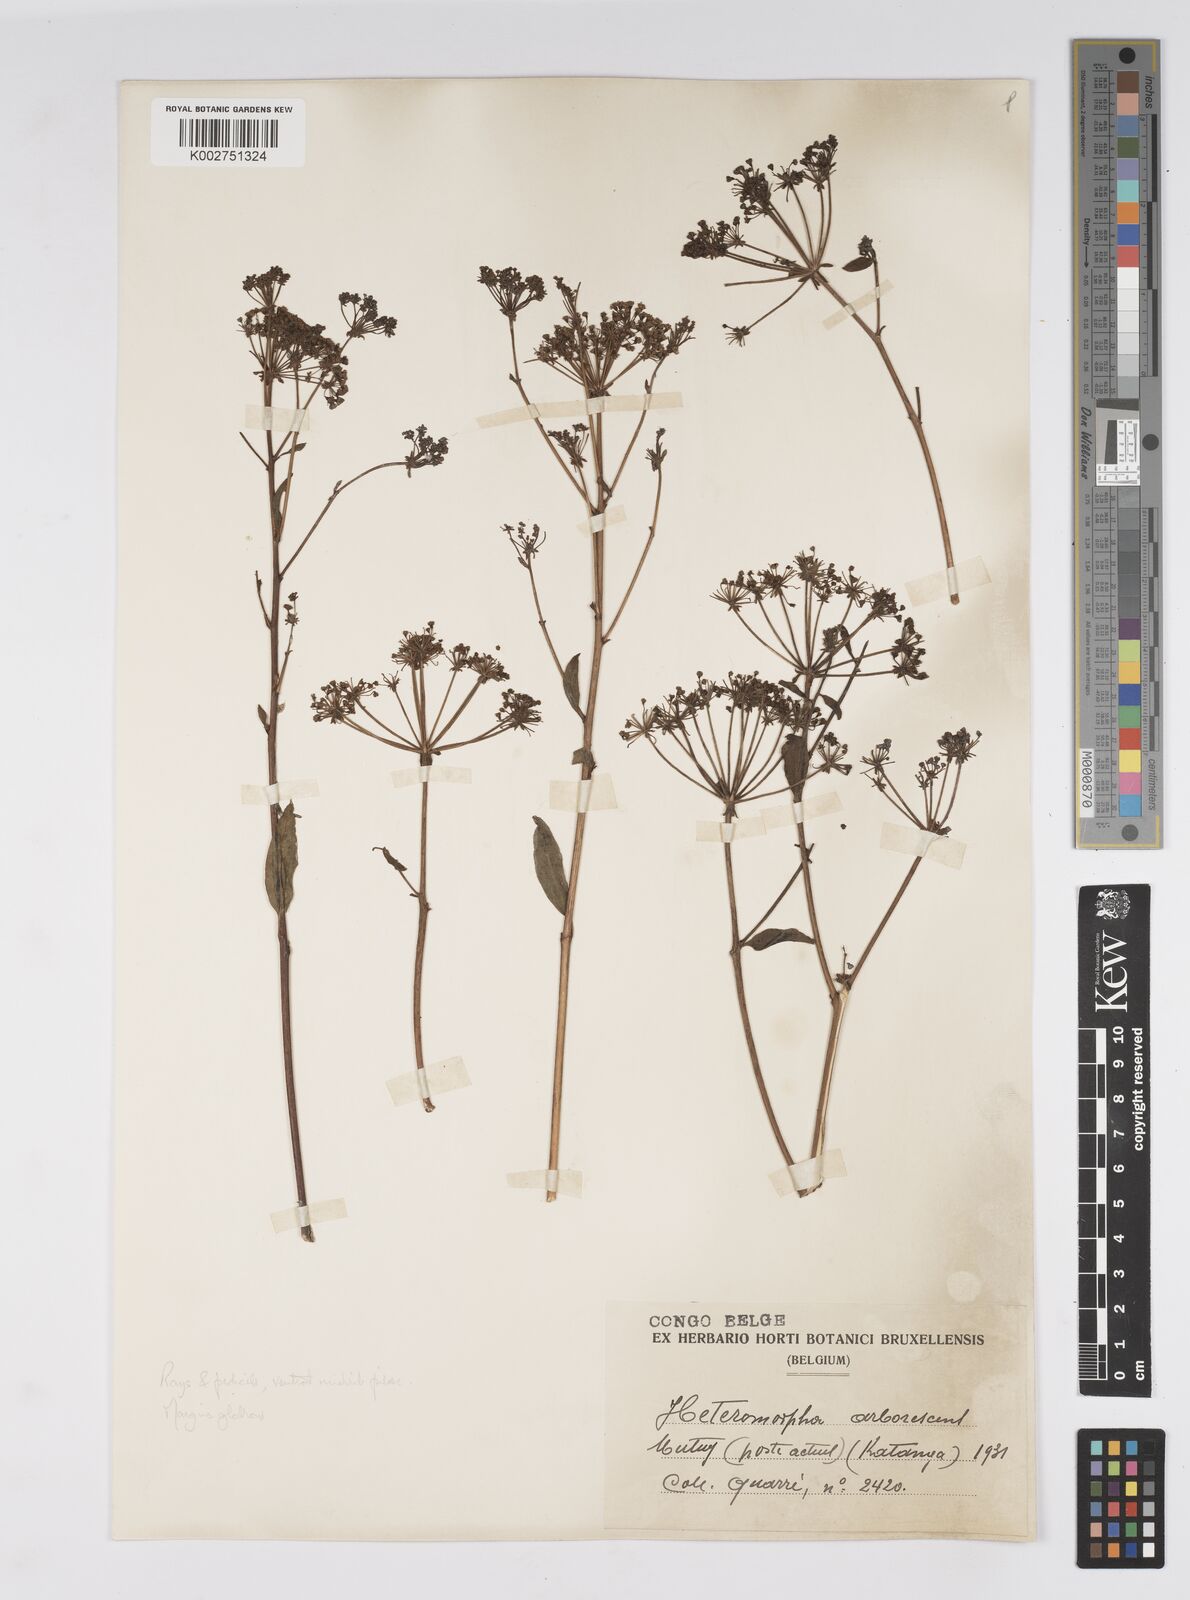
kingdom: Plantae
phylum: Tracheophyta
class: Magnoliopsida
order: Apiales
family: Apiaceae
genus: Heteromorpha
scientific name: Heteromorpha arborescens
